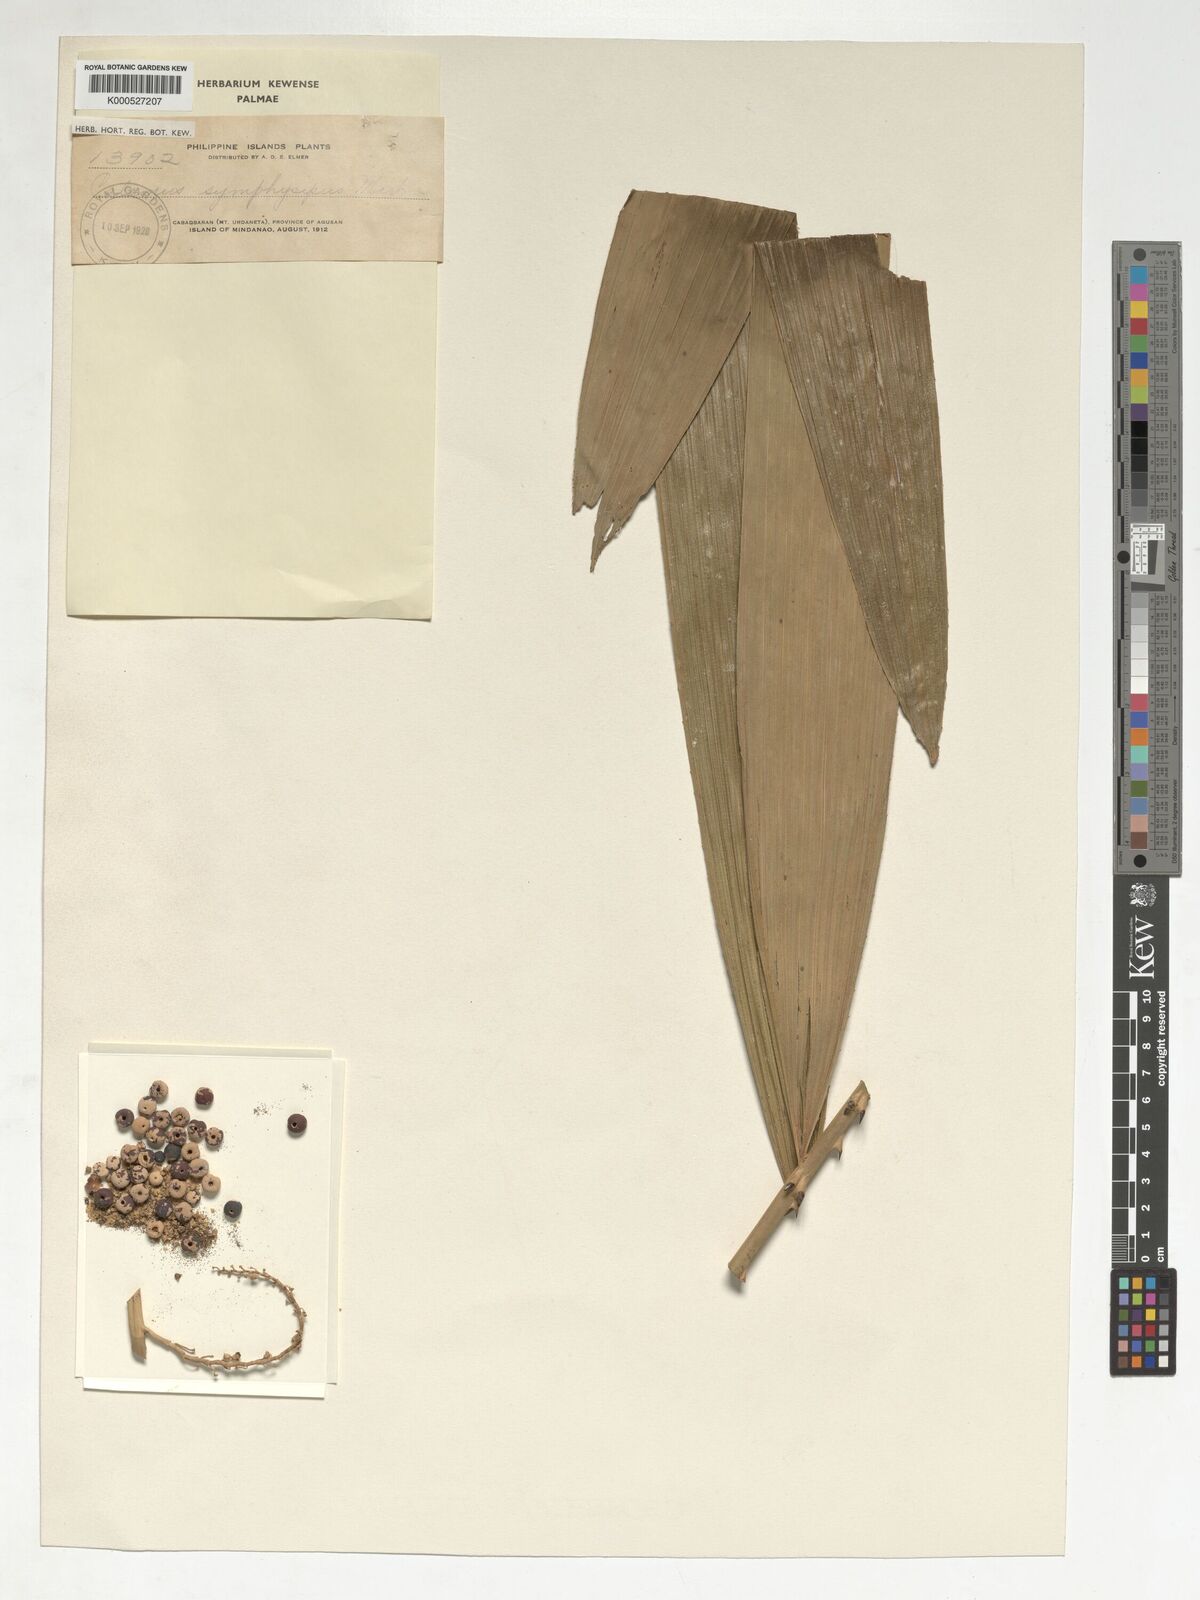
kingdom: Plantae
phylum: Tracheophyta
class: Liliopsida
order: Arecales
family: Arecaceae
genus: Calamus
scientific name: Calamus symphysipus
